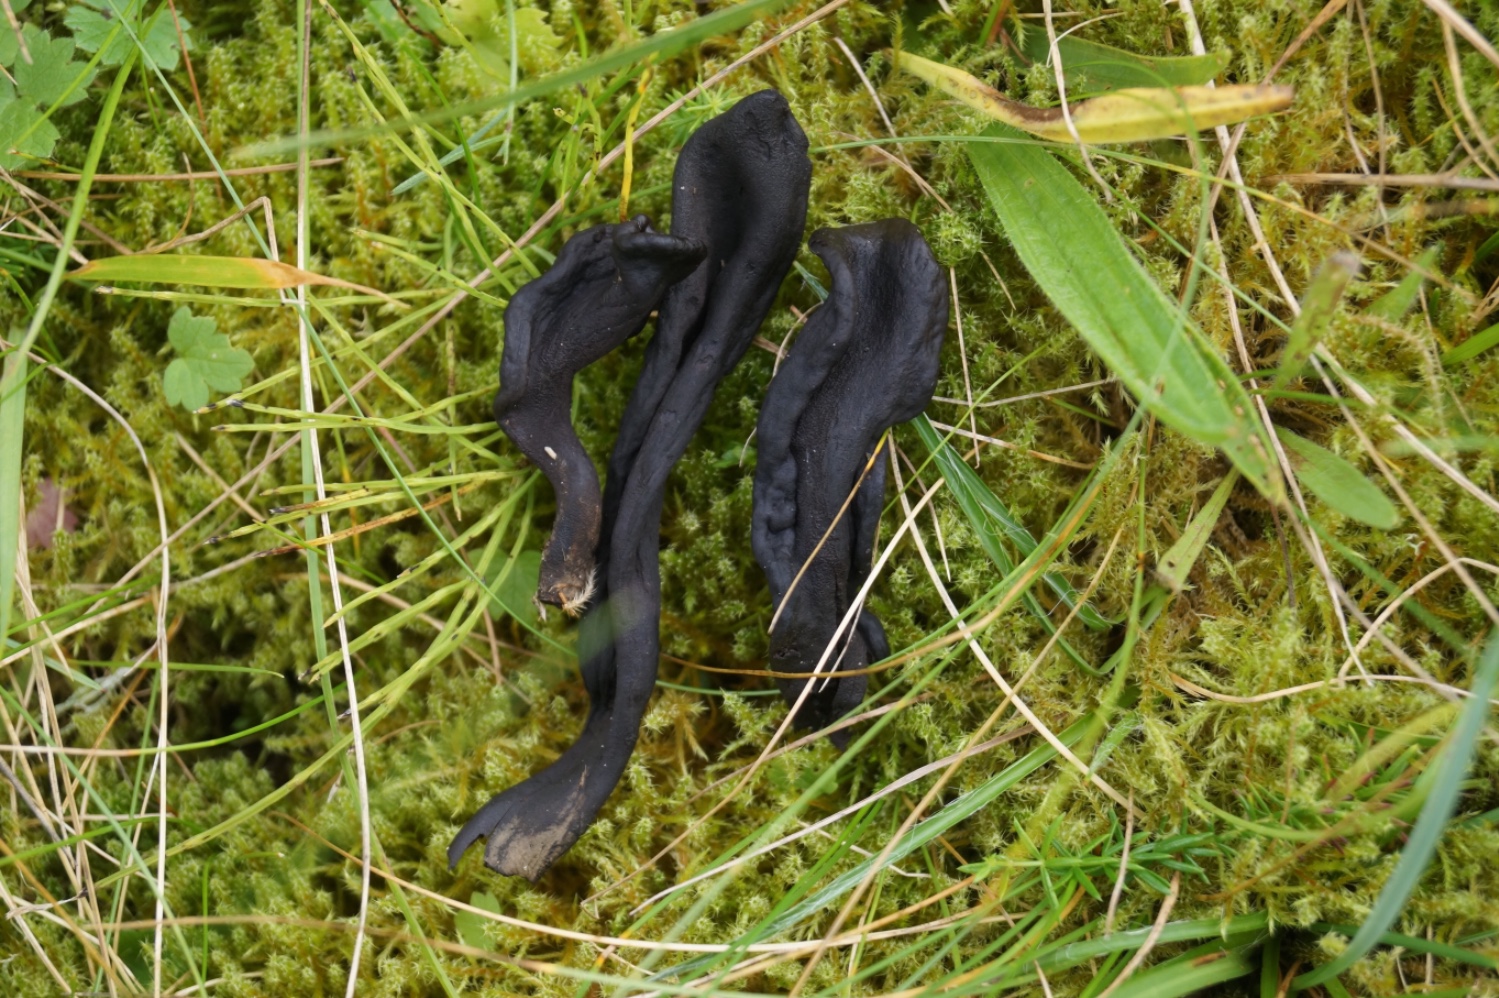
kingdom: Fungi
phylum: Ascomycota
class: Geoglossomycetes
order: Geoglossales
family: Geoglossaceae
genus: Geoglossum
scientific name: Geoglossum cookeianum
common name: bred jordtunge
